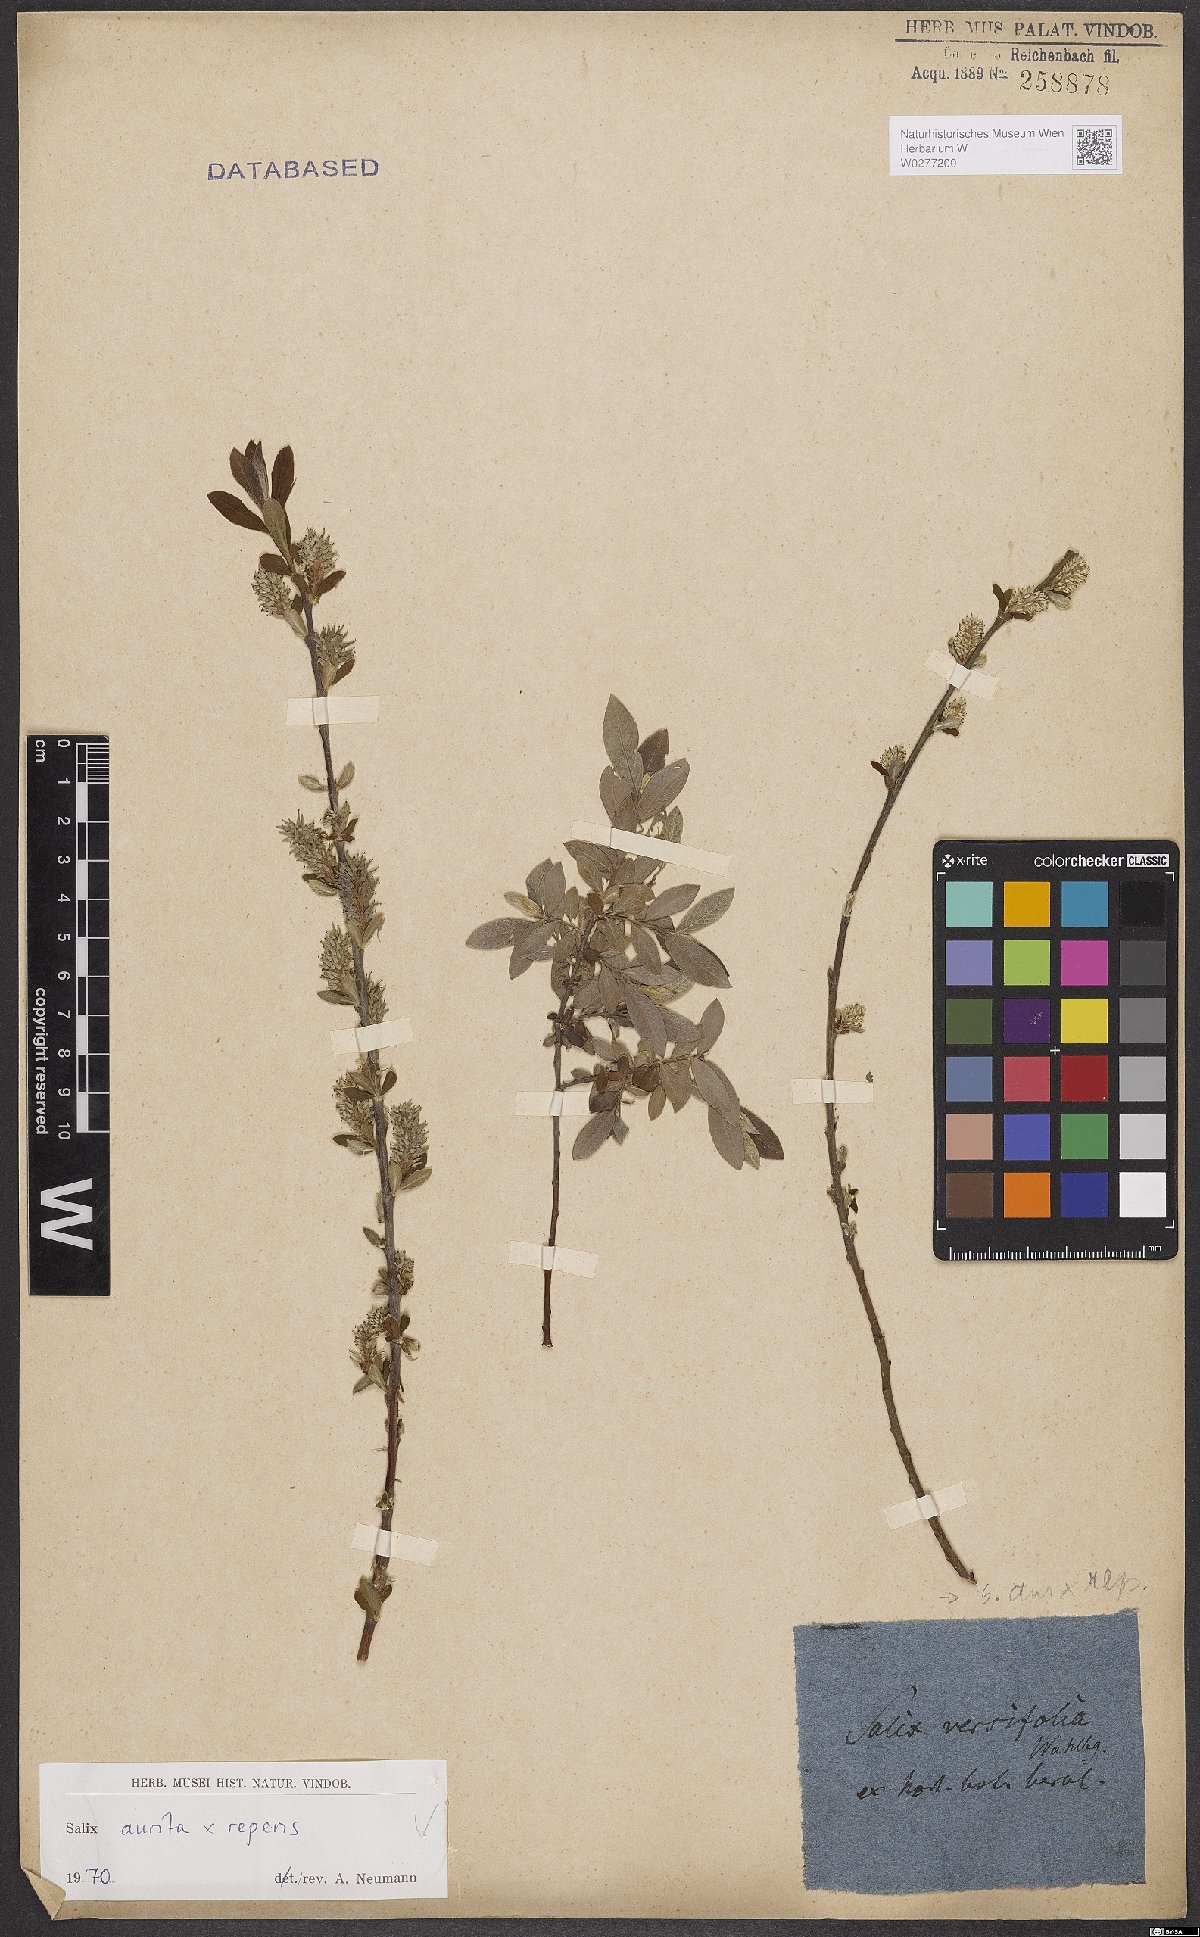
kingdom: Plantae
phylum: Tracheophyta
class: Magnoliopsida
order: Malpighiales
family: Salicaceae
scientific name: Salicaceae
